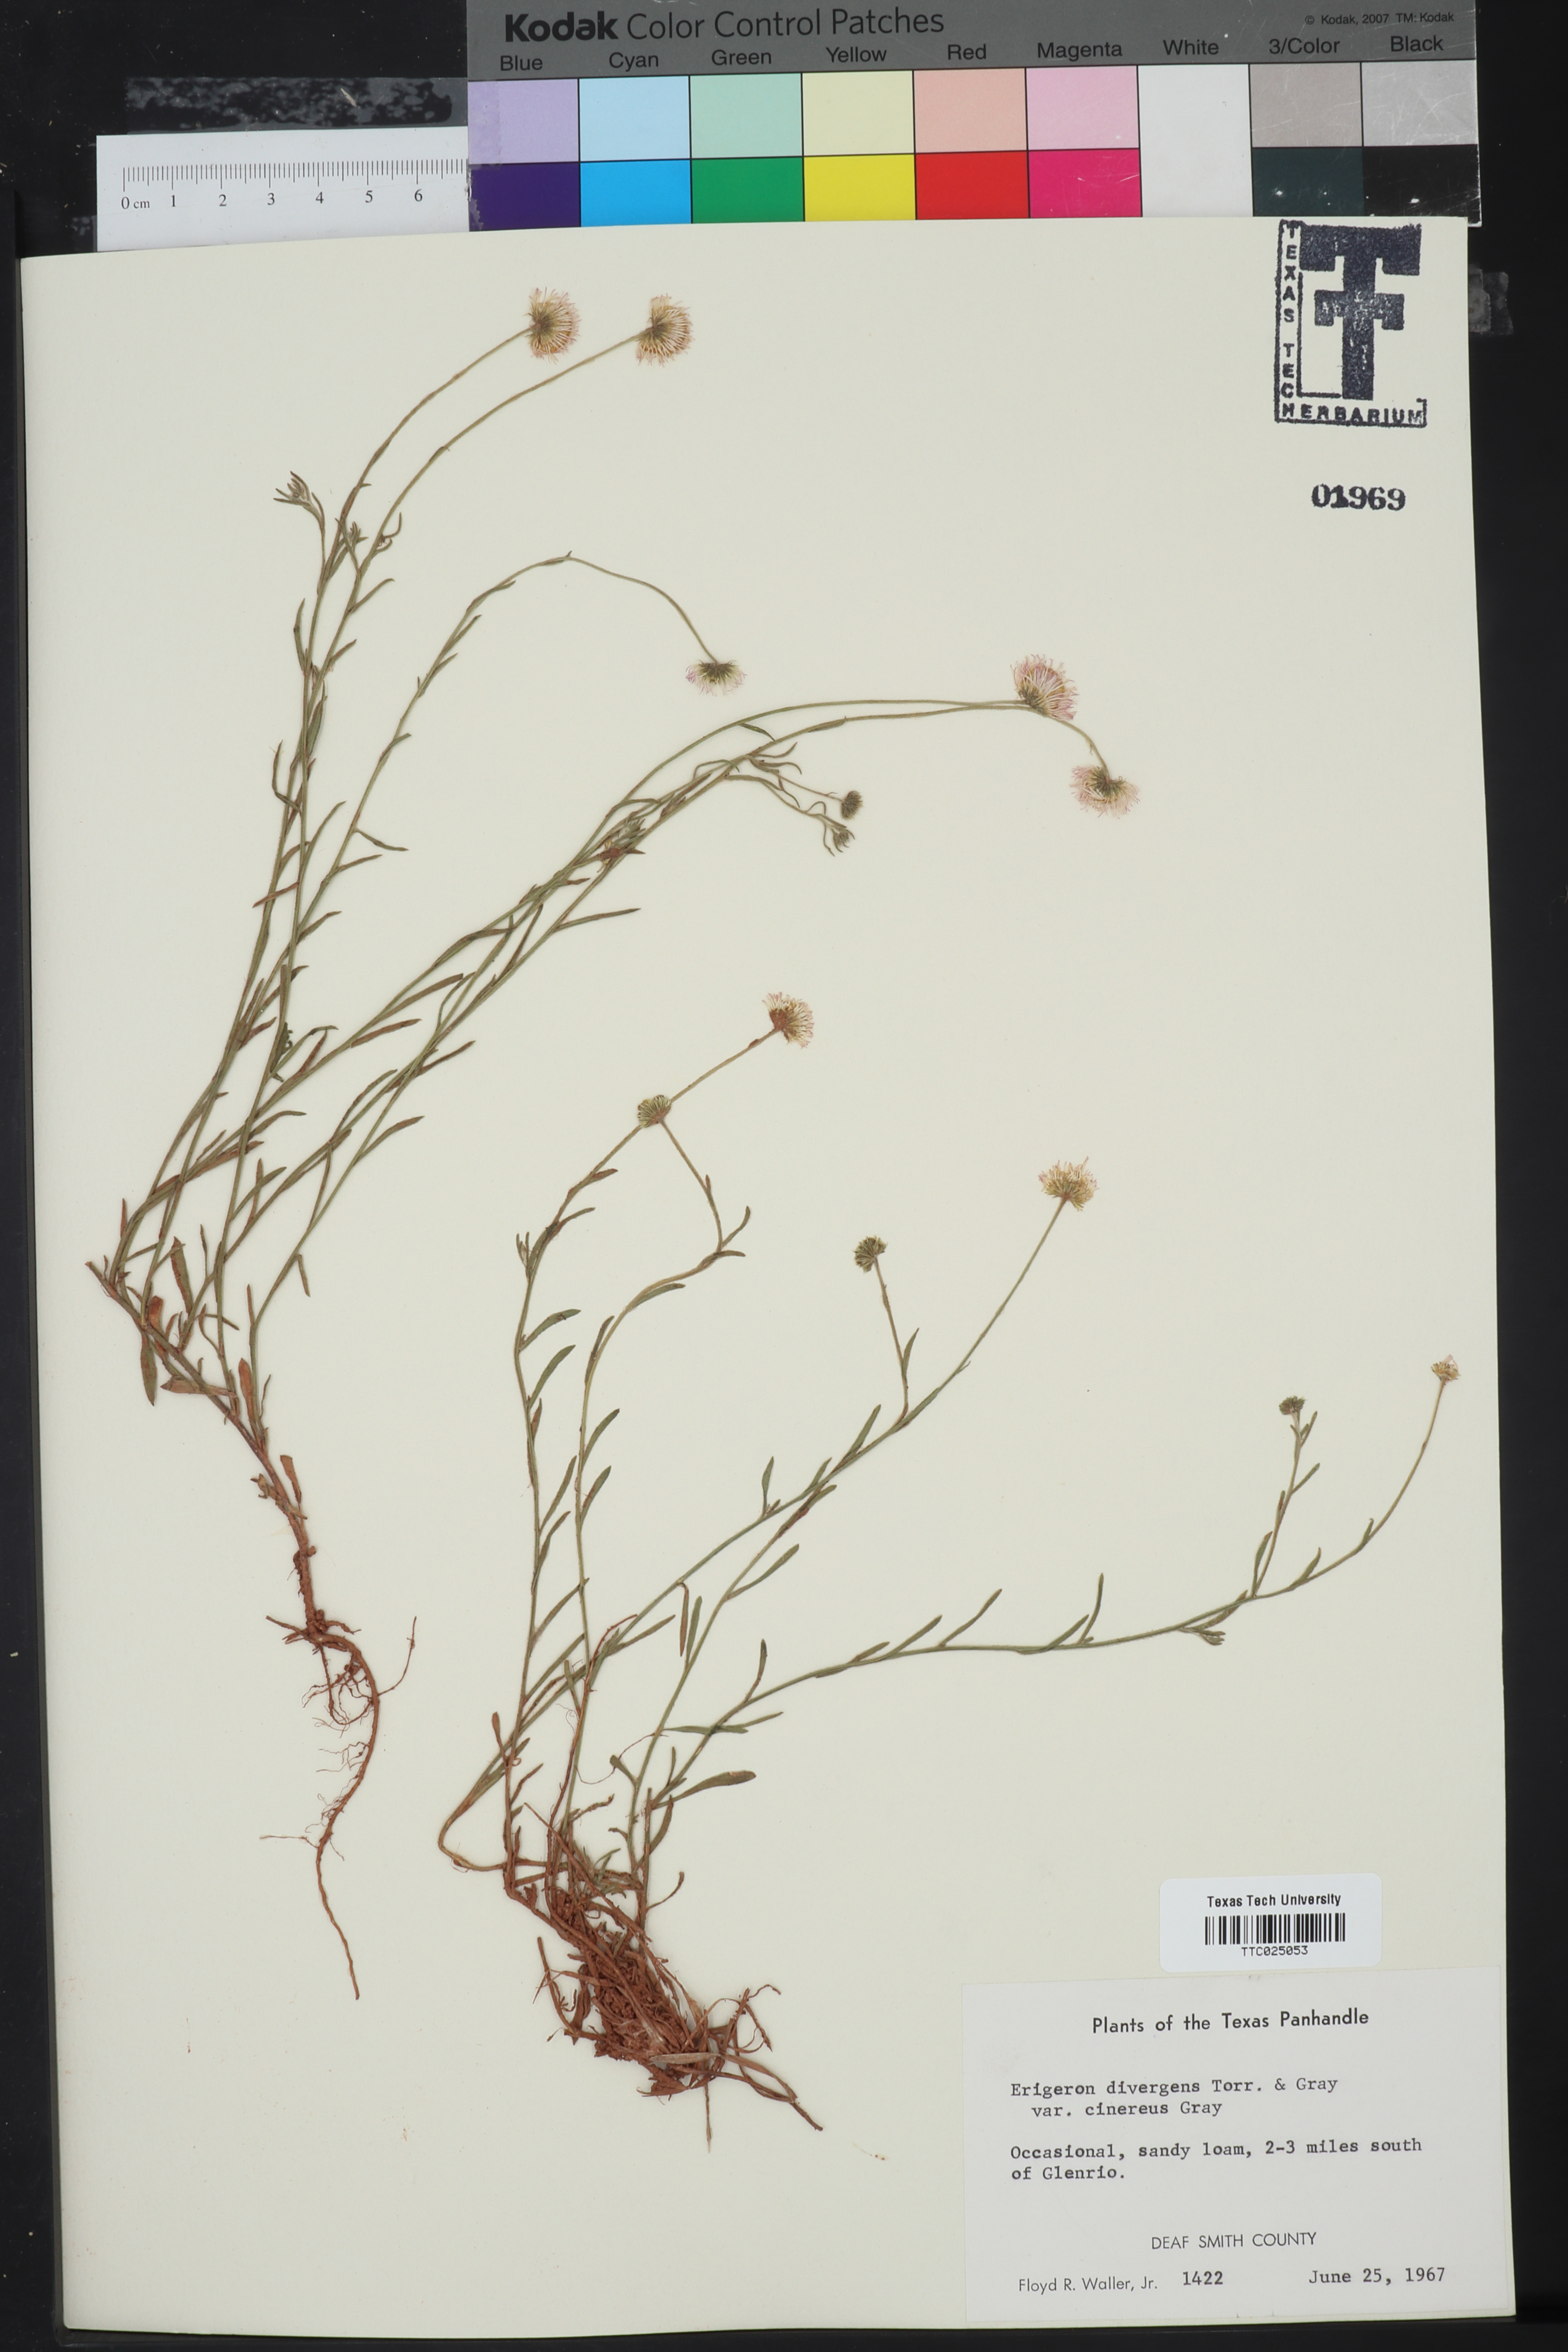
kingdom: Plantae
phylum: Tracheophyta
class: Magnoliopsida
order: Asterales
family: Asteraceae
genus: Erigeron
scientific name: Erigeron tracyi
